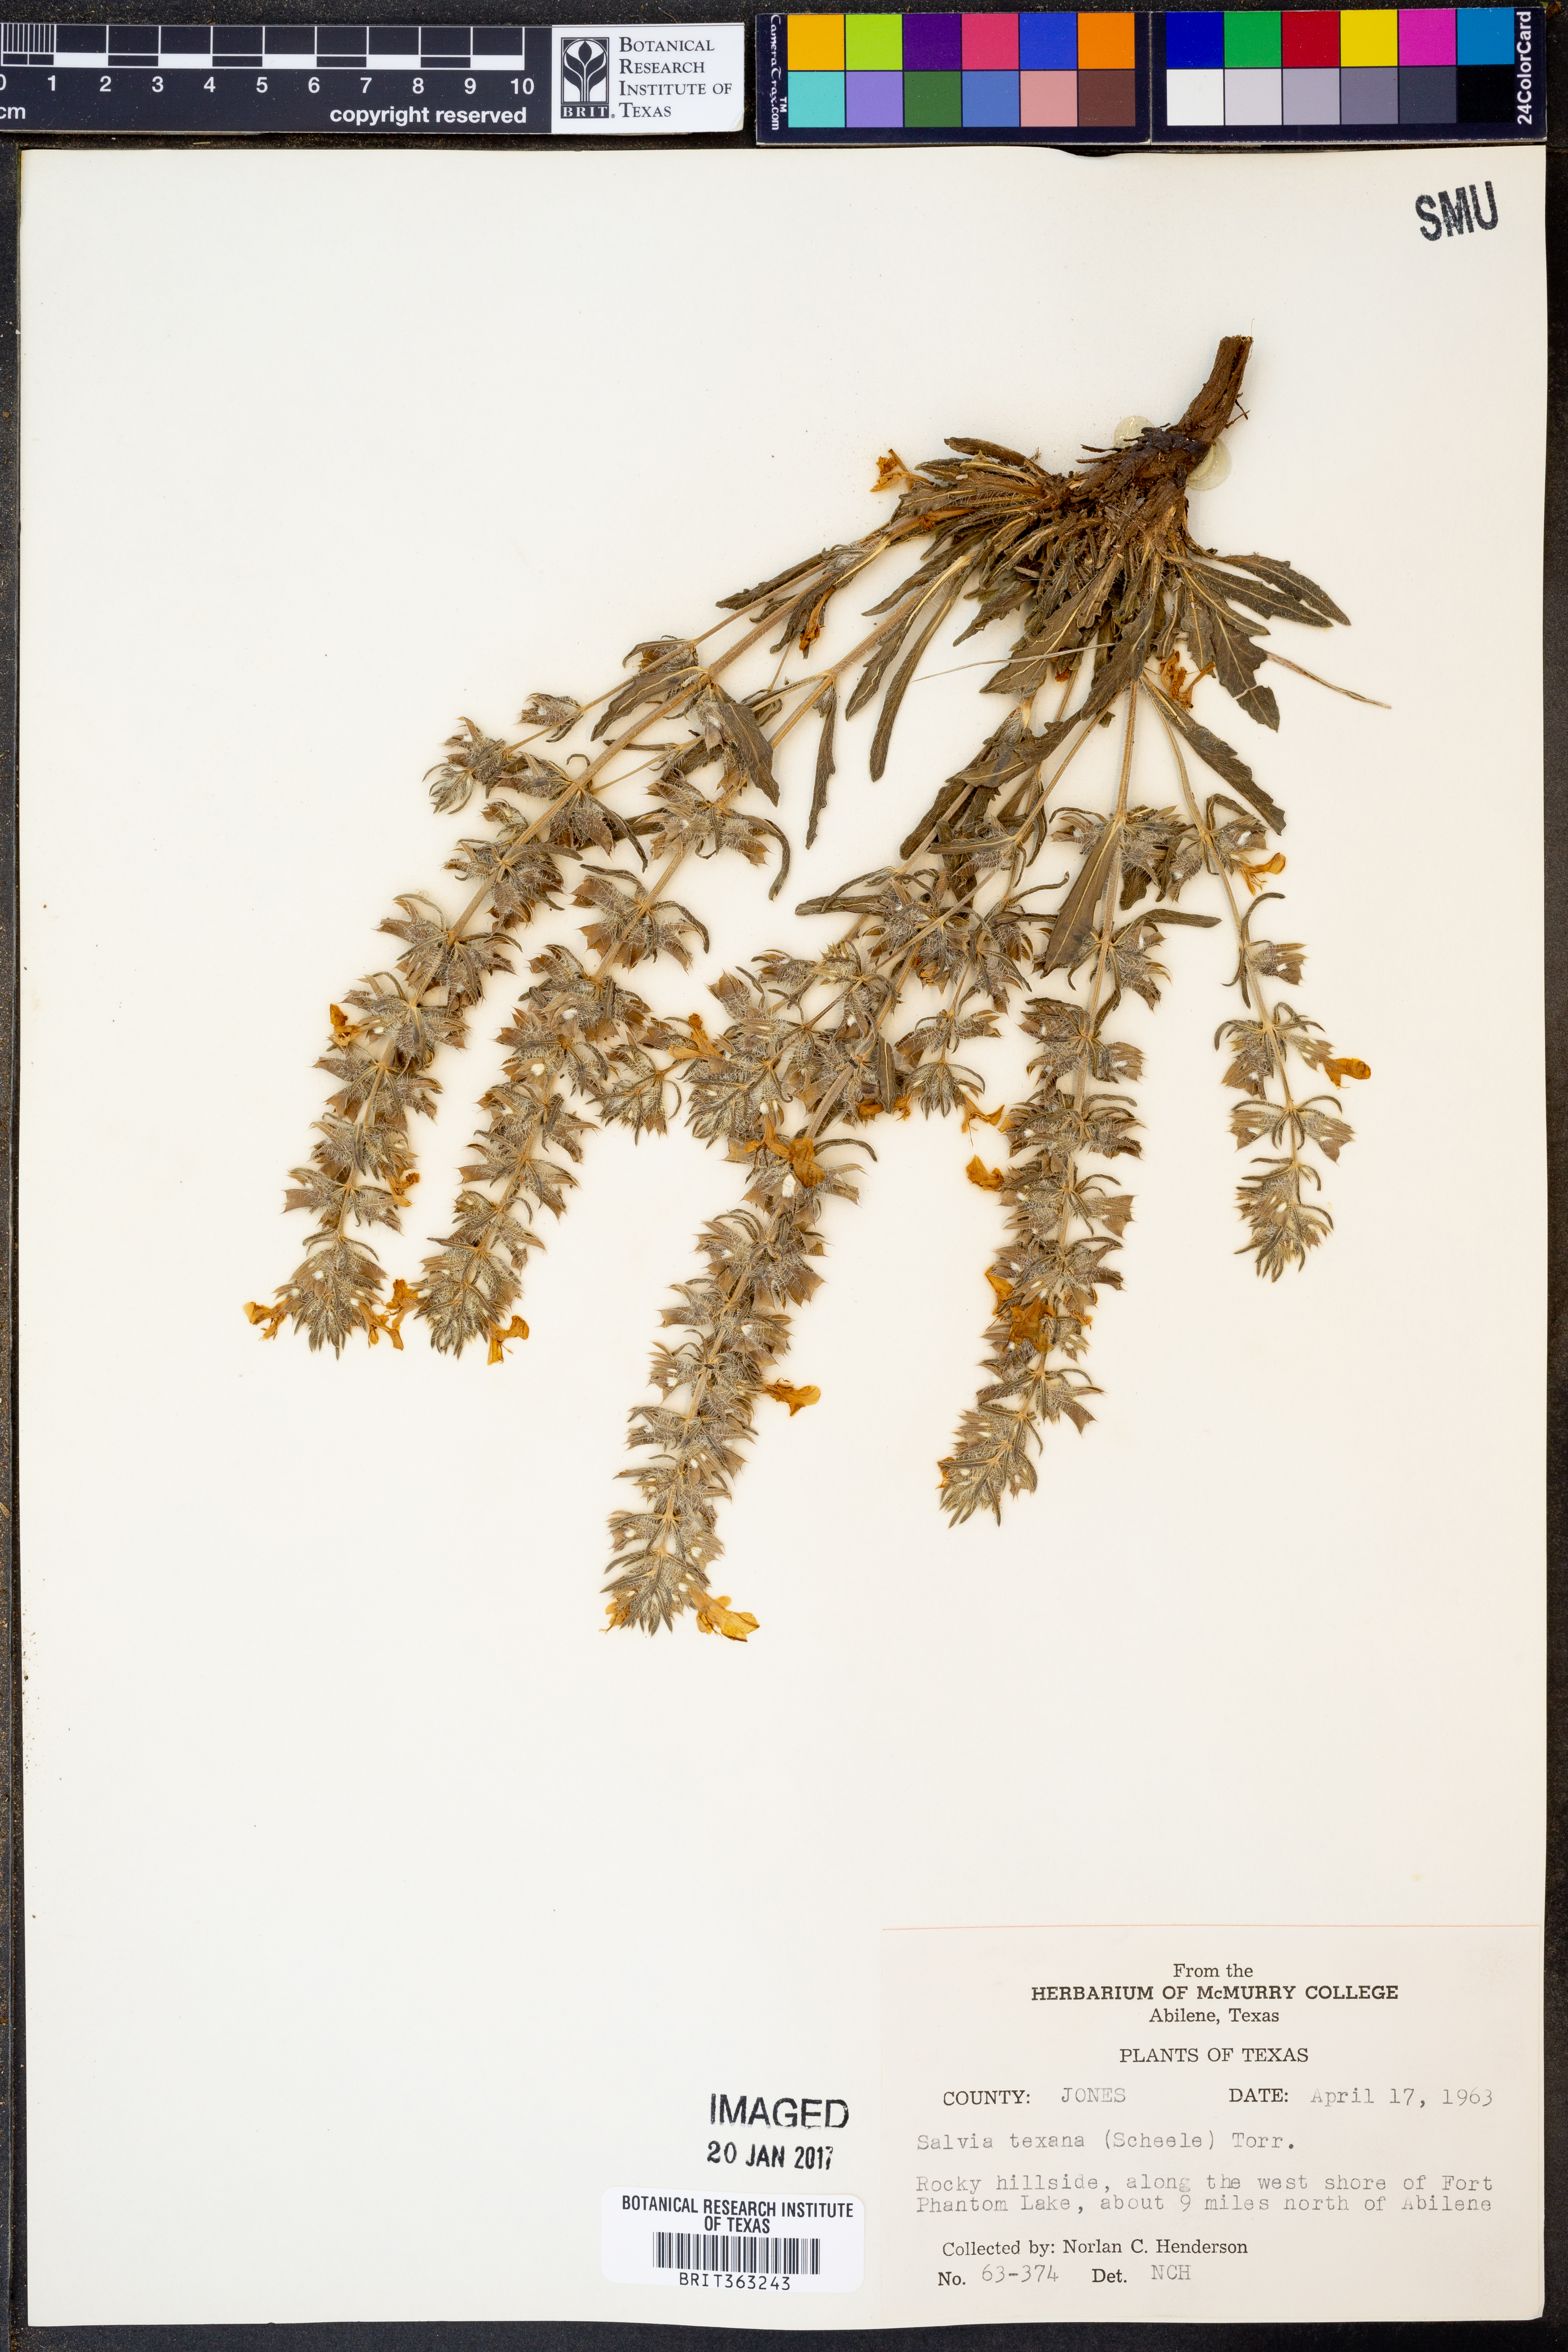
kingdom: Plantae
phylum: Tracheophyta
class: Magnoliopsida
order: Lamiales
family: Lamiaceae
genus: Salvia
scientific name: Salvia texana
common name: Texas sage
